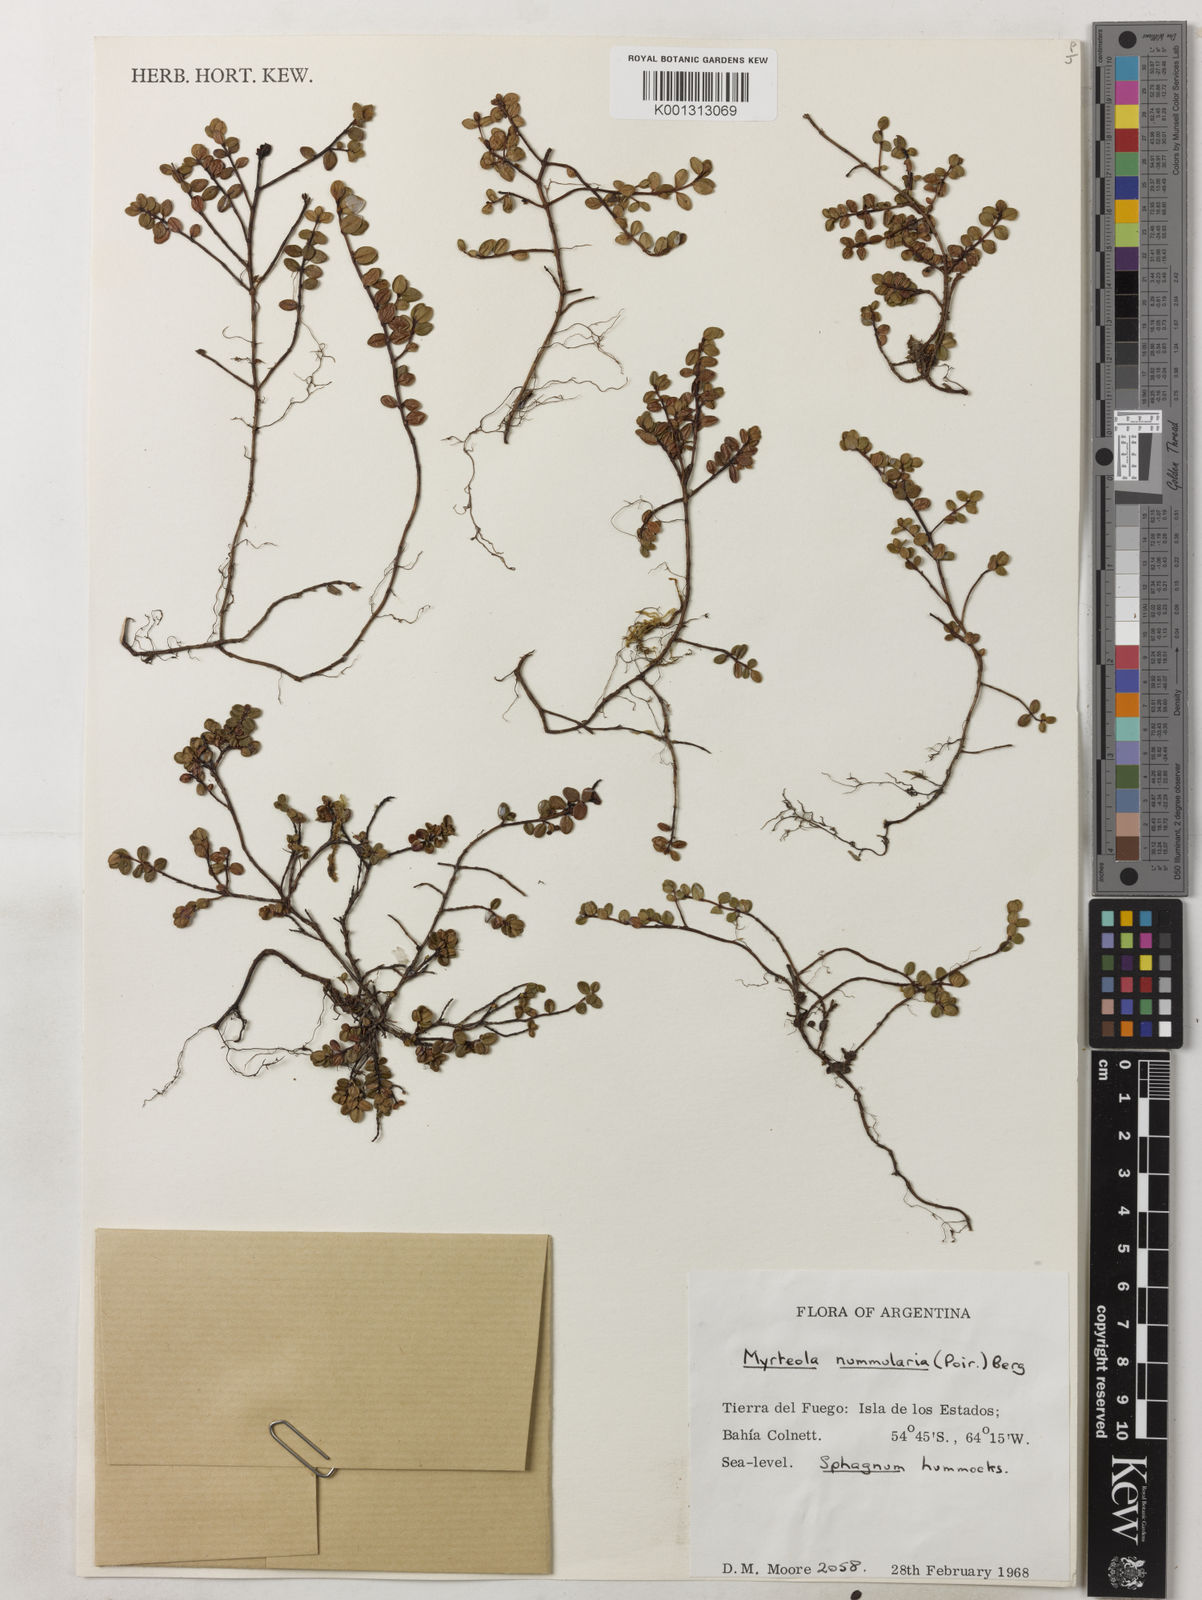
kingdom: Plantae
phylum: Tracheophyta
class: Magnoliopsida
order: Myrtales
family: Myrtaceae
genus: Myrteola
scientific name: Myrteola nummularia
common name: Cranberry-myrtle
